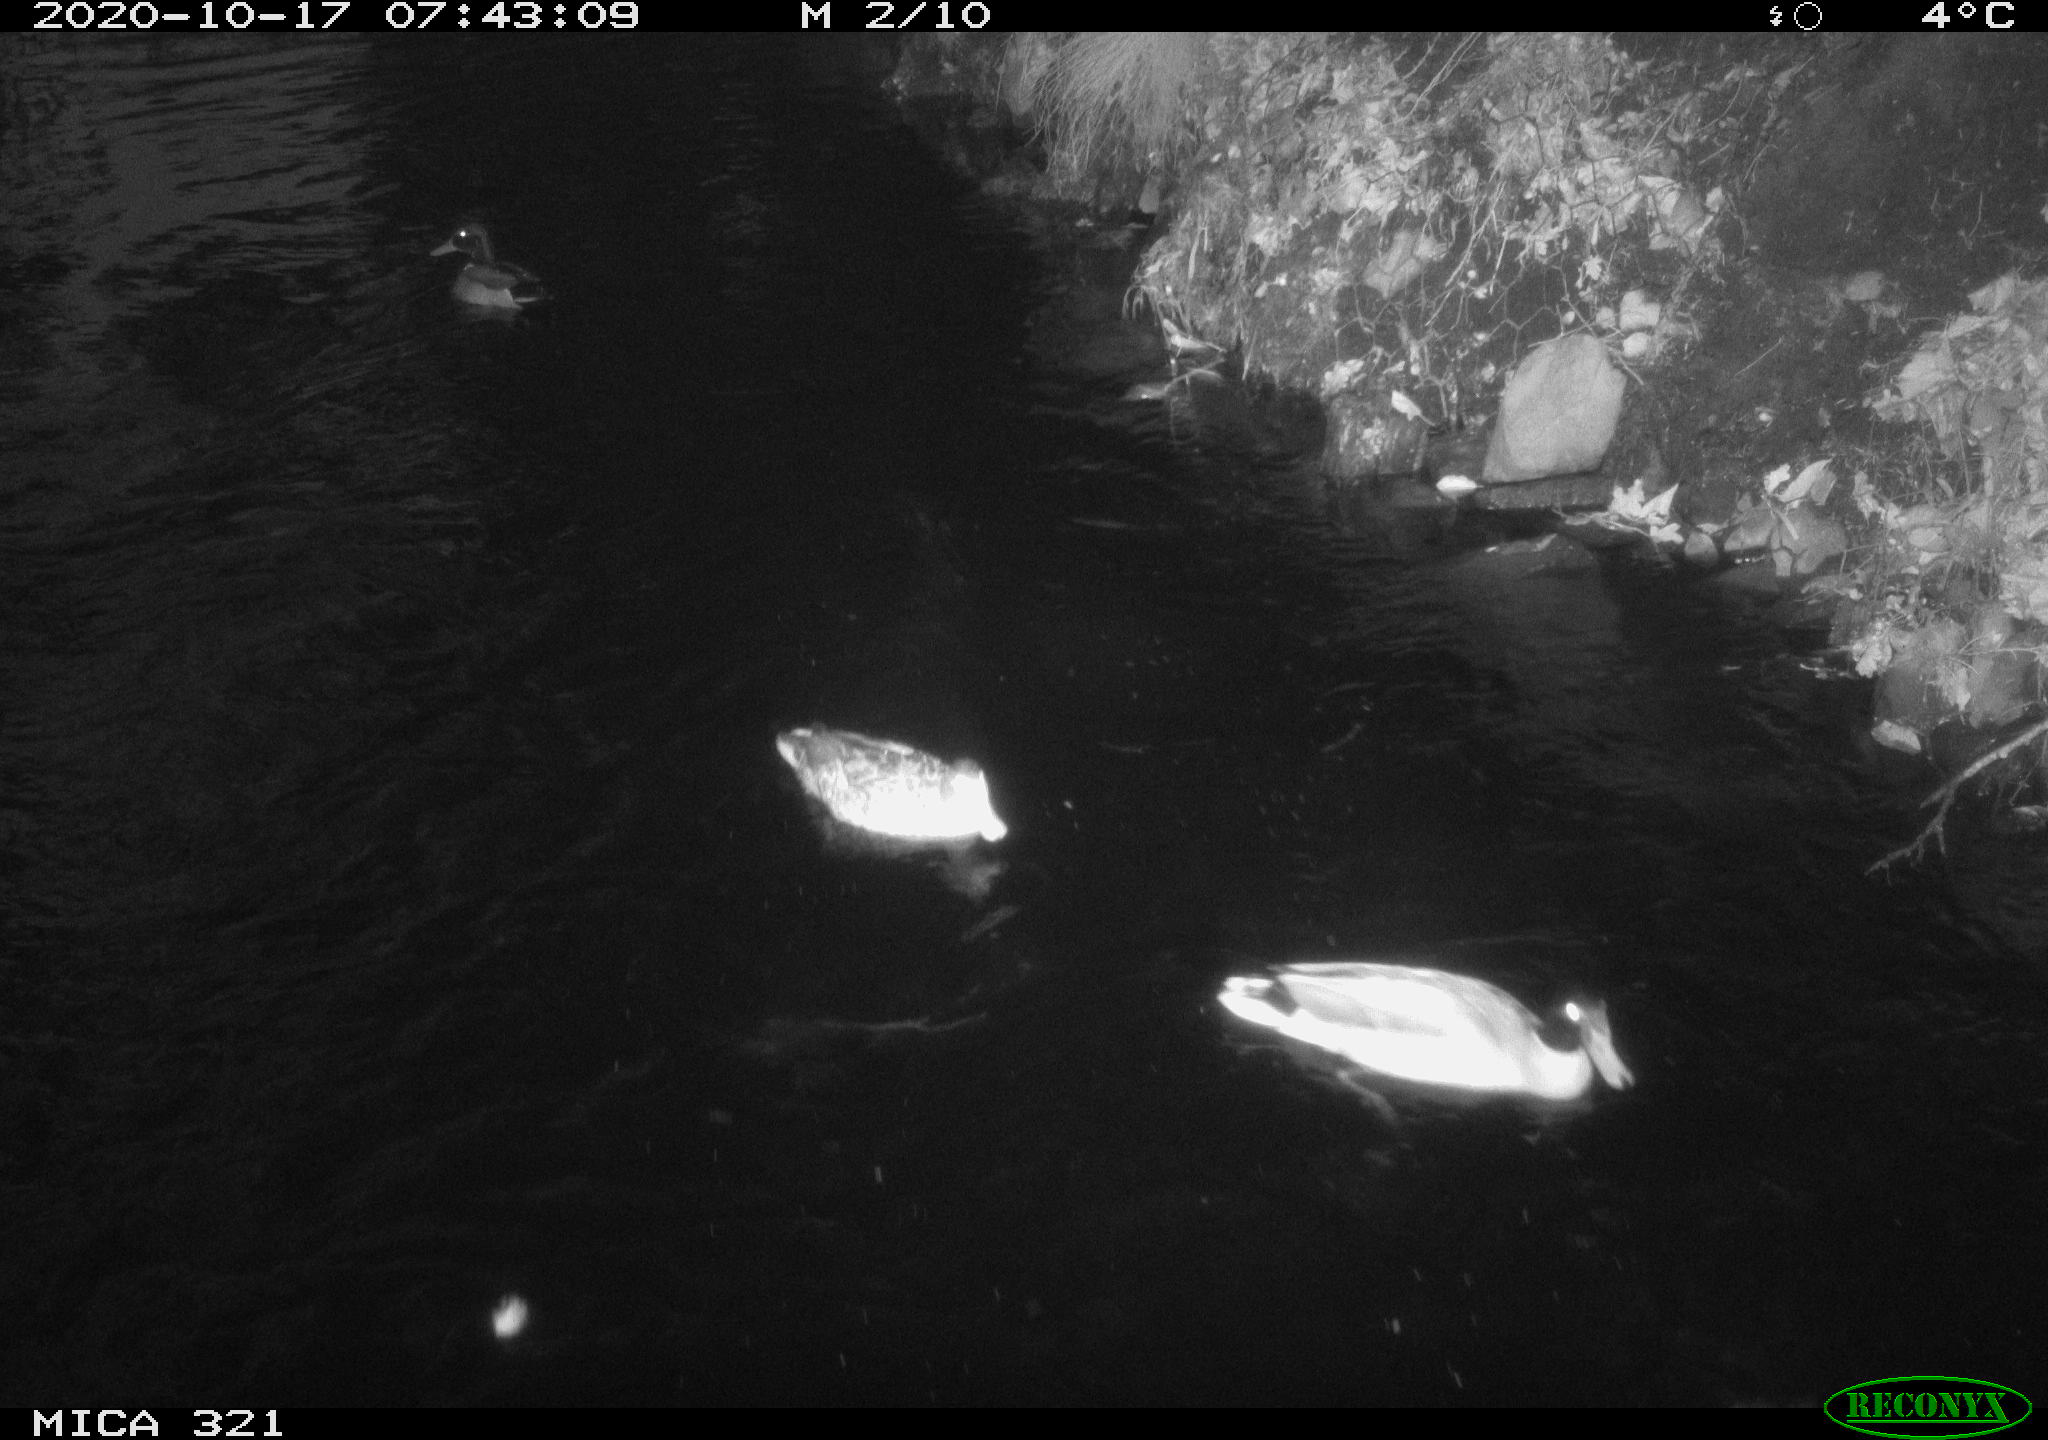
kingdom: Animalia
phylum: Chordata
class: Aves
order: Anseriformes
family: Anatidae
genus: Anas
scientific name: Anas platyrhynchos
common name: Mallard
